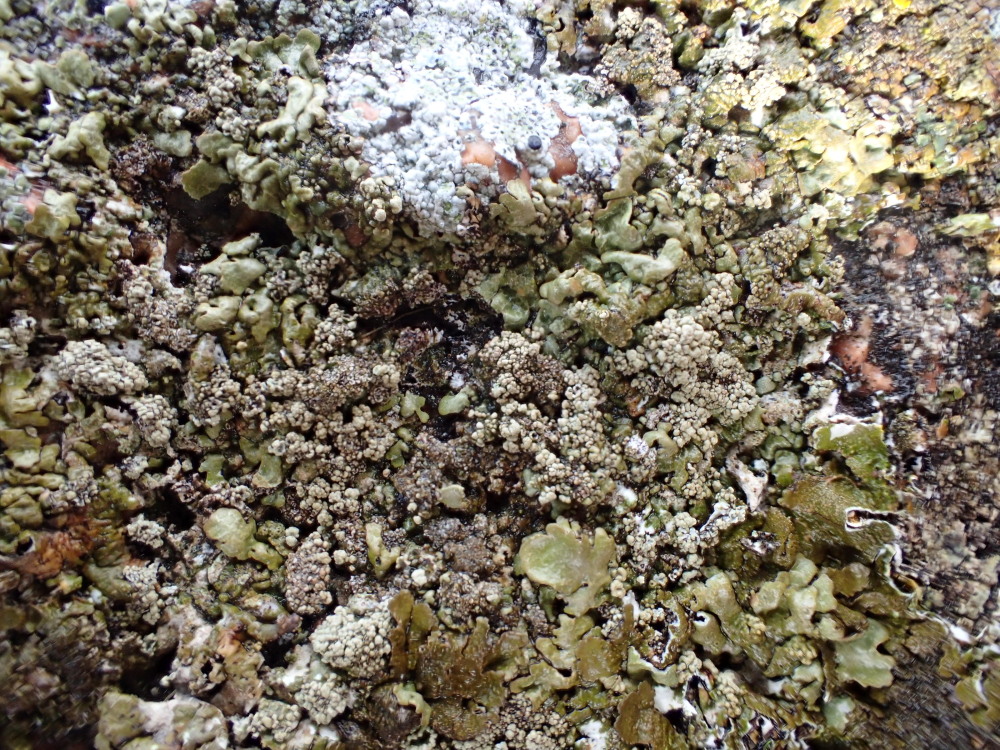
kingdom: Fungi
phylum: Ascomycota
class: Lecanoromycetes
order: Lecanorales
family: Parmeliaceae
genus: Xanthoparmelia
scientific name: Xanthoparmelia loxodes
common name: knudret skållav
